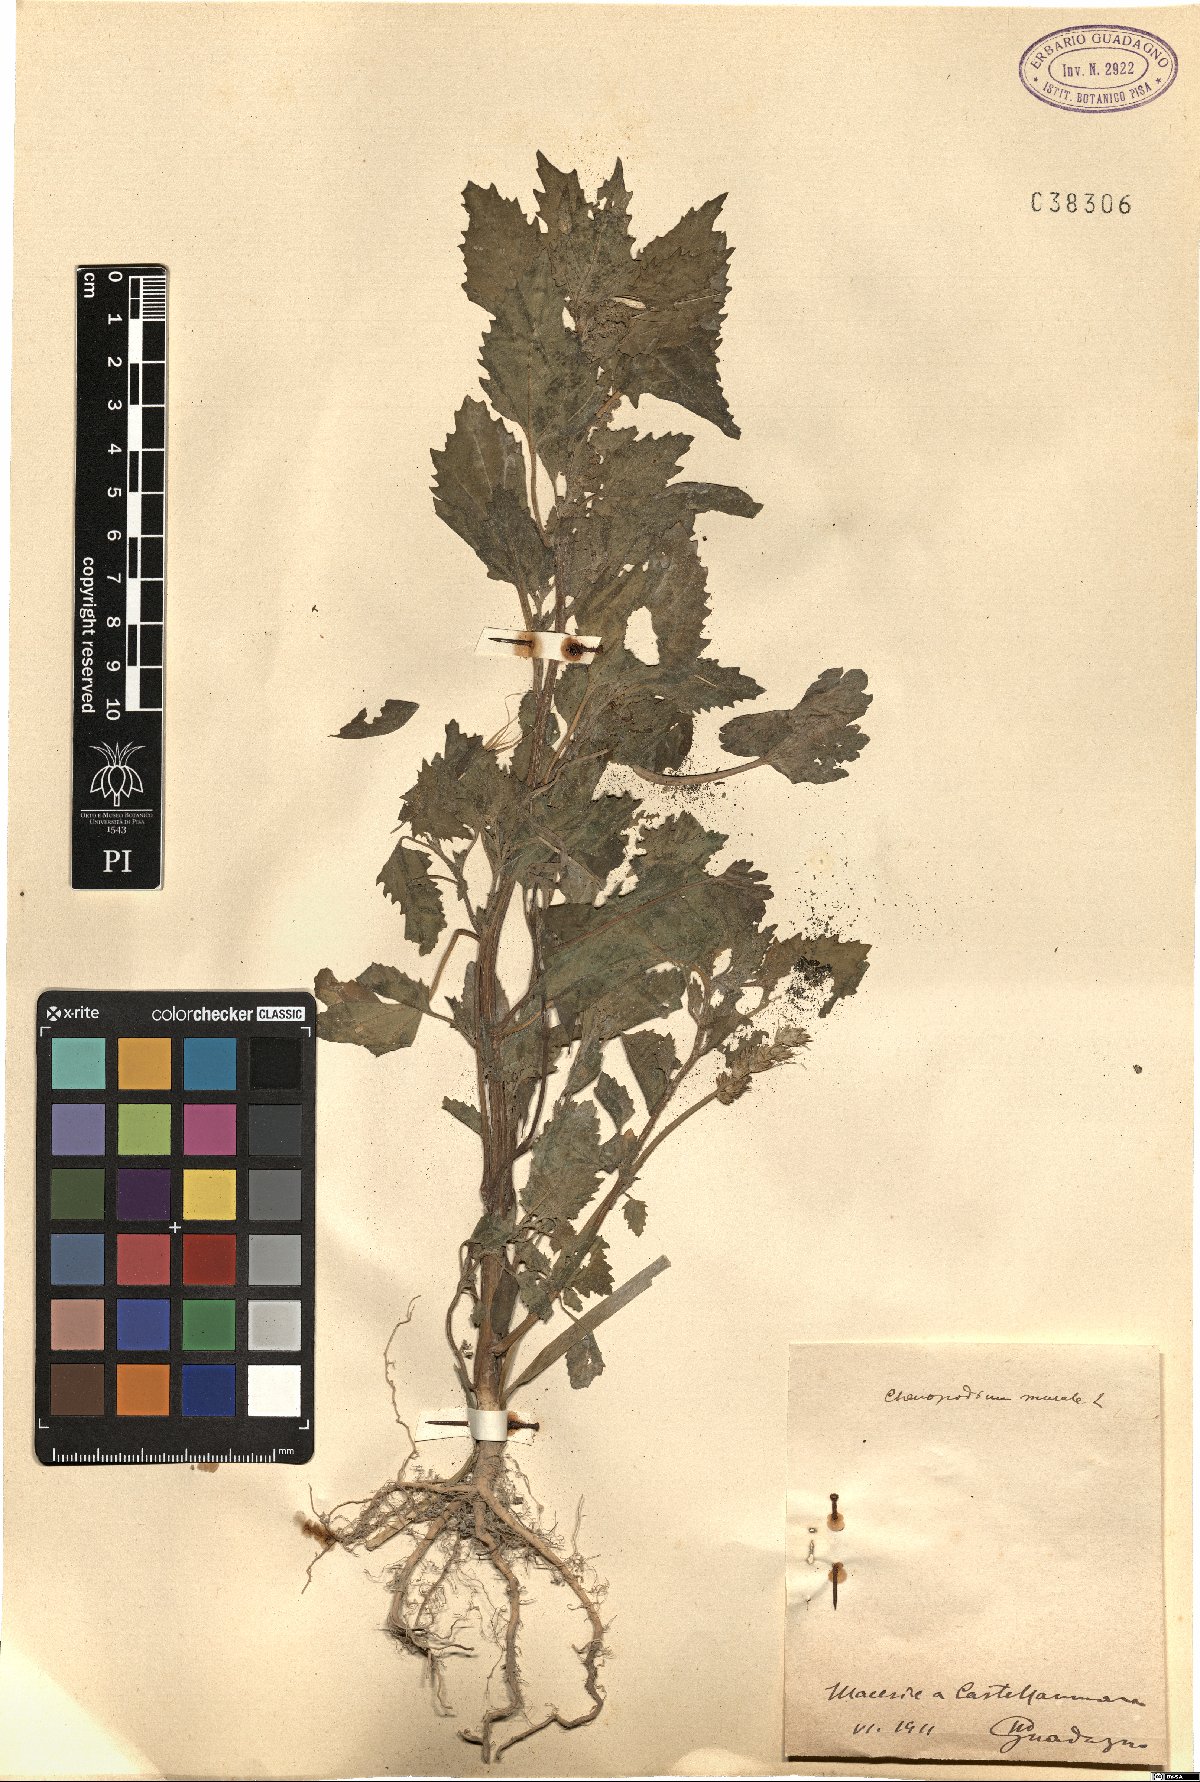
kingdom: Plantae
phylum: Tracheophyta
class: Magnoliopsida
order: Caryophyllales
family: Amaranthaceae
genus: Chenopodiastrum
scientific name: Chenopodiastrum murale
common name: Sowbane
